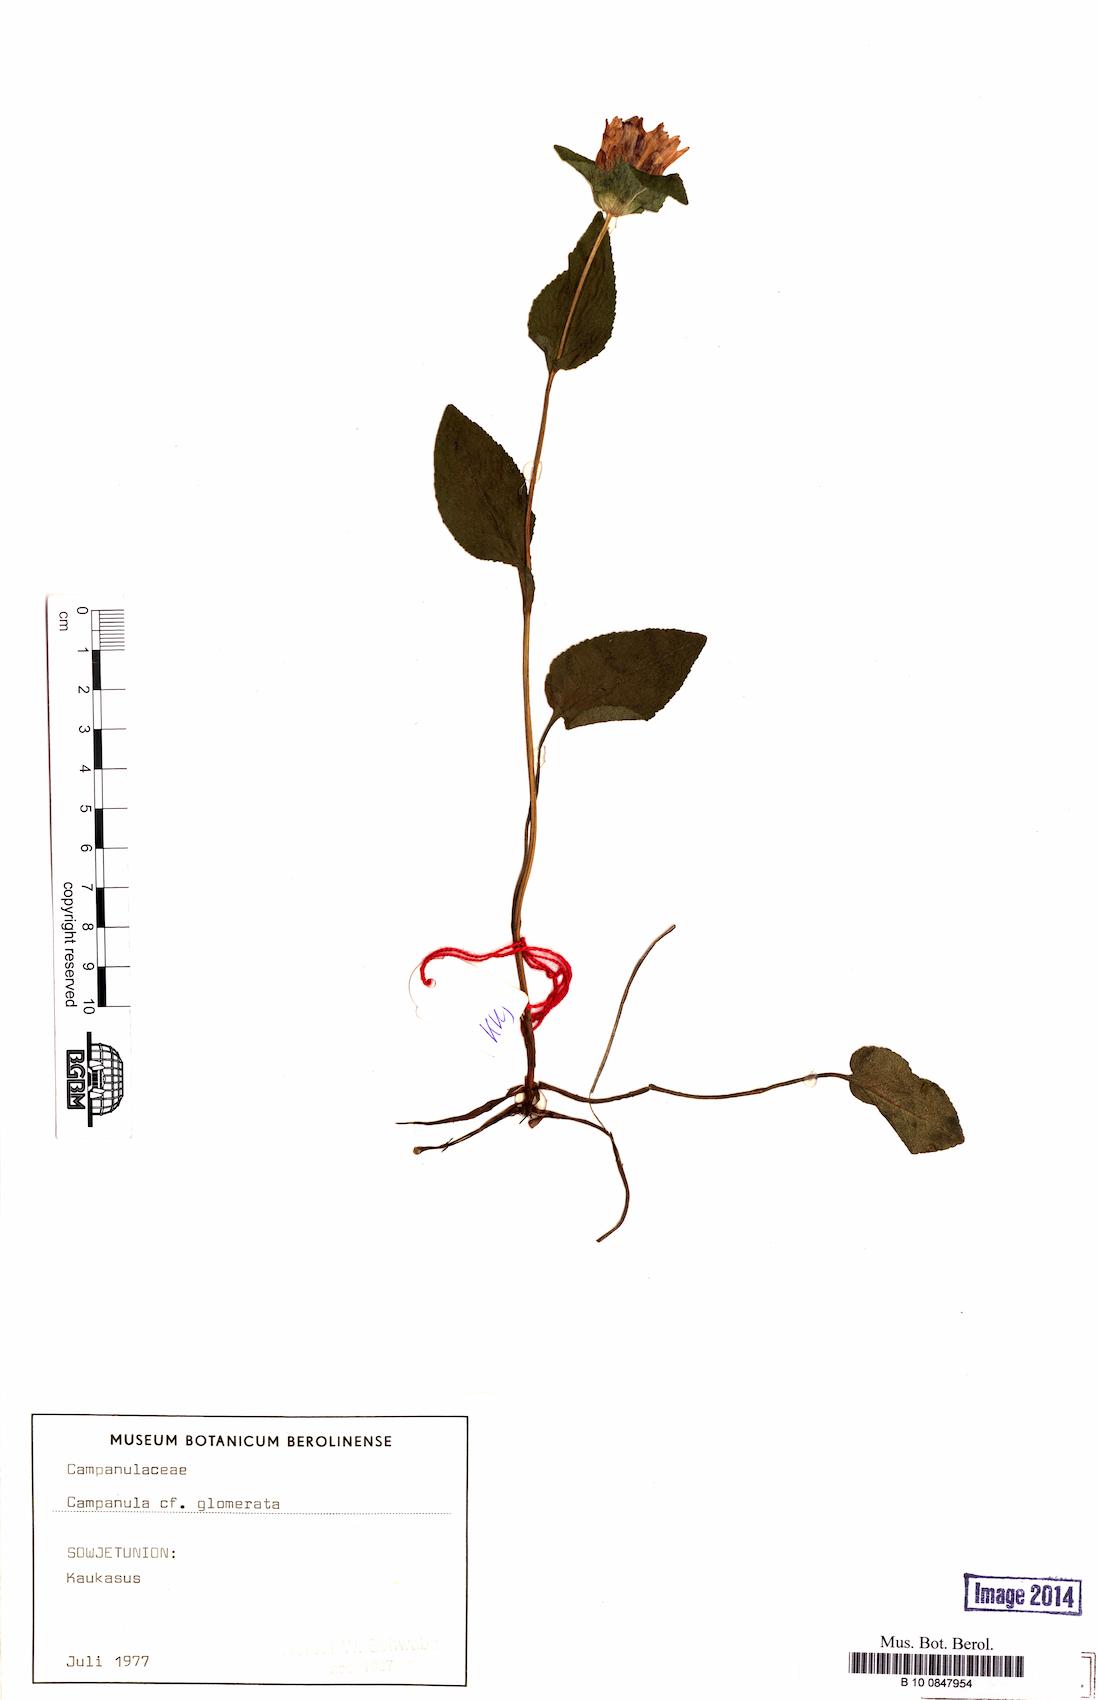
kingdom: Plantae
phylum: Tracheophyta
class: Magnoliopsida
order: Asterales
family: Campanulaceae
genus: Campanula
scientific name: Campanula glomerata
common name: Clustered bellflower
